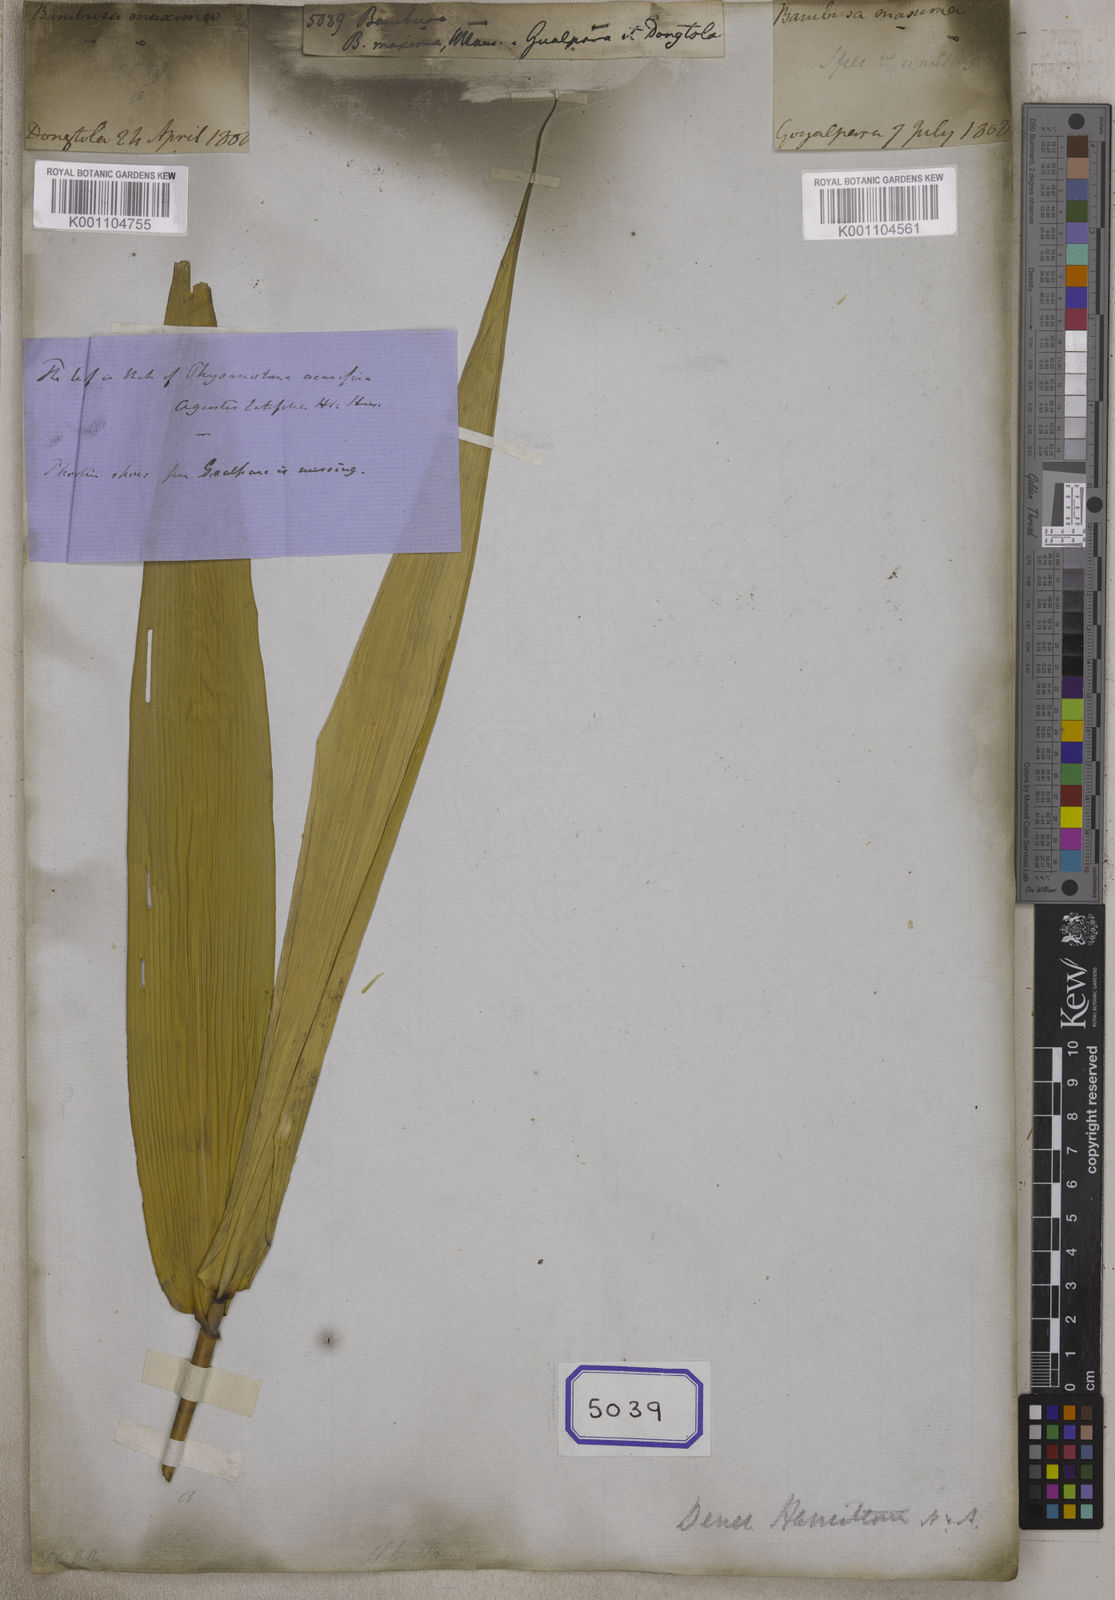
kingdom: Plantae
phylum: Tracheophyta
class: Liliopsida
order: Poales
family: Poaceae
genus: Bambusa
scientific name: Bambusa
